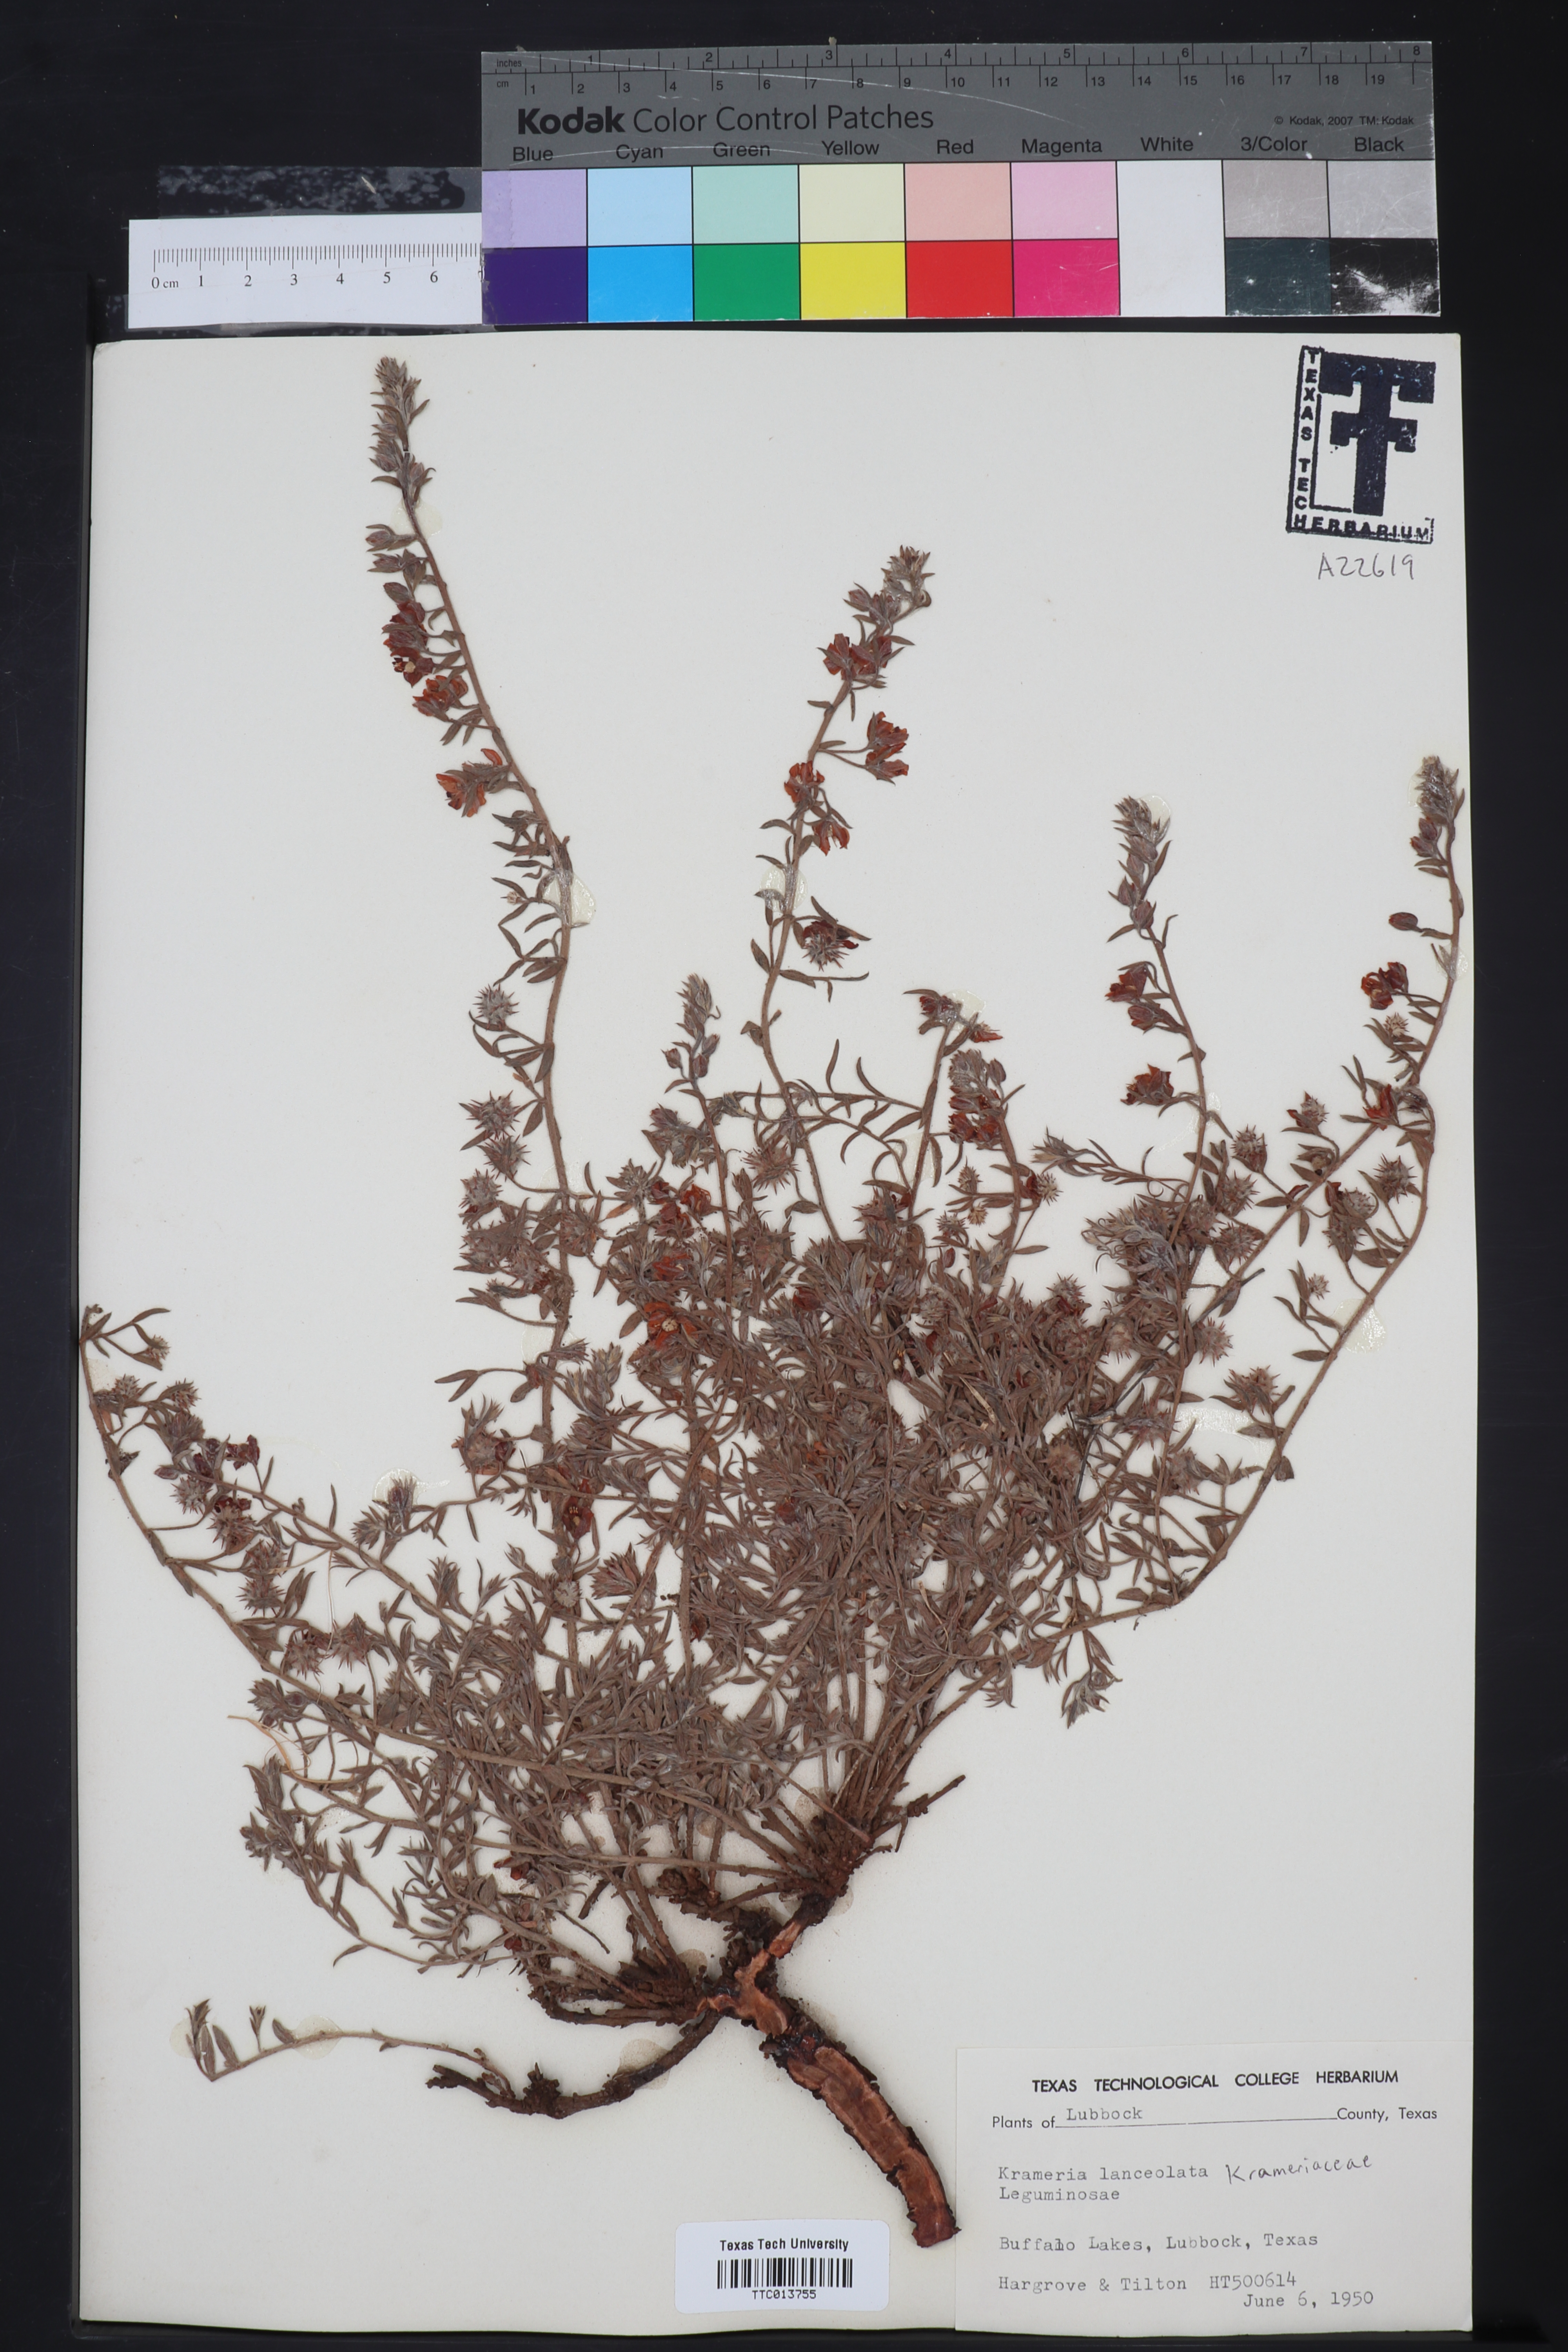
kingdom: Plantae
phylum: Tracheophyta
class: Magnoliopsida
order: Zygophyllales
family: Krameriaceae
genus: Krameria
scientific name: Krameria lanceolata
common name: Ratany
